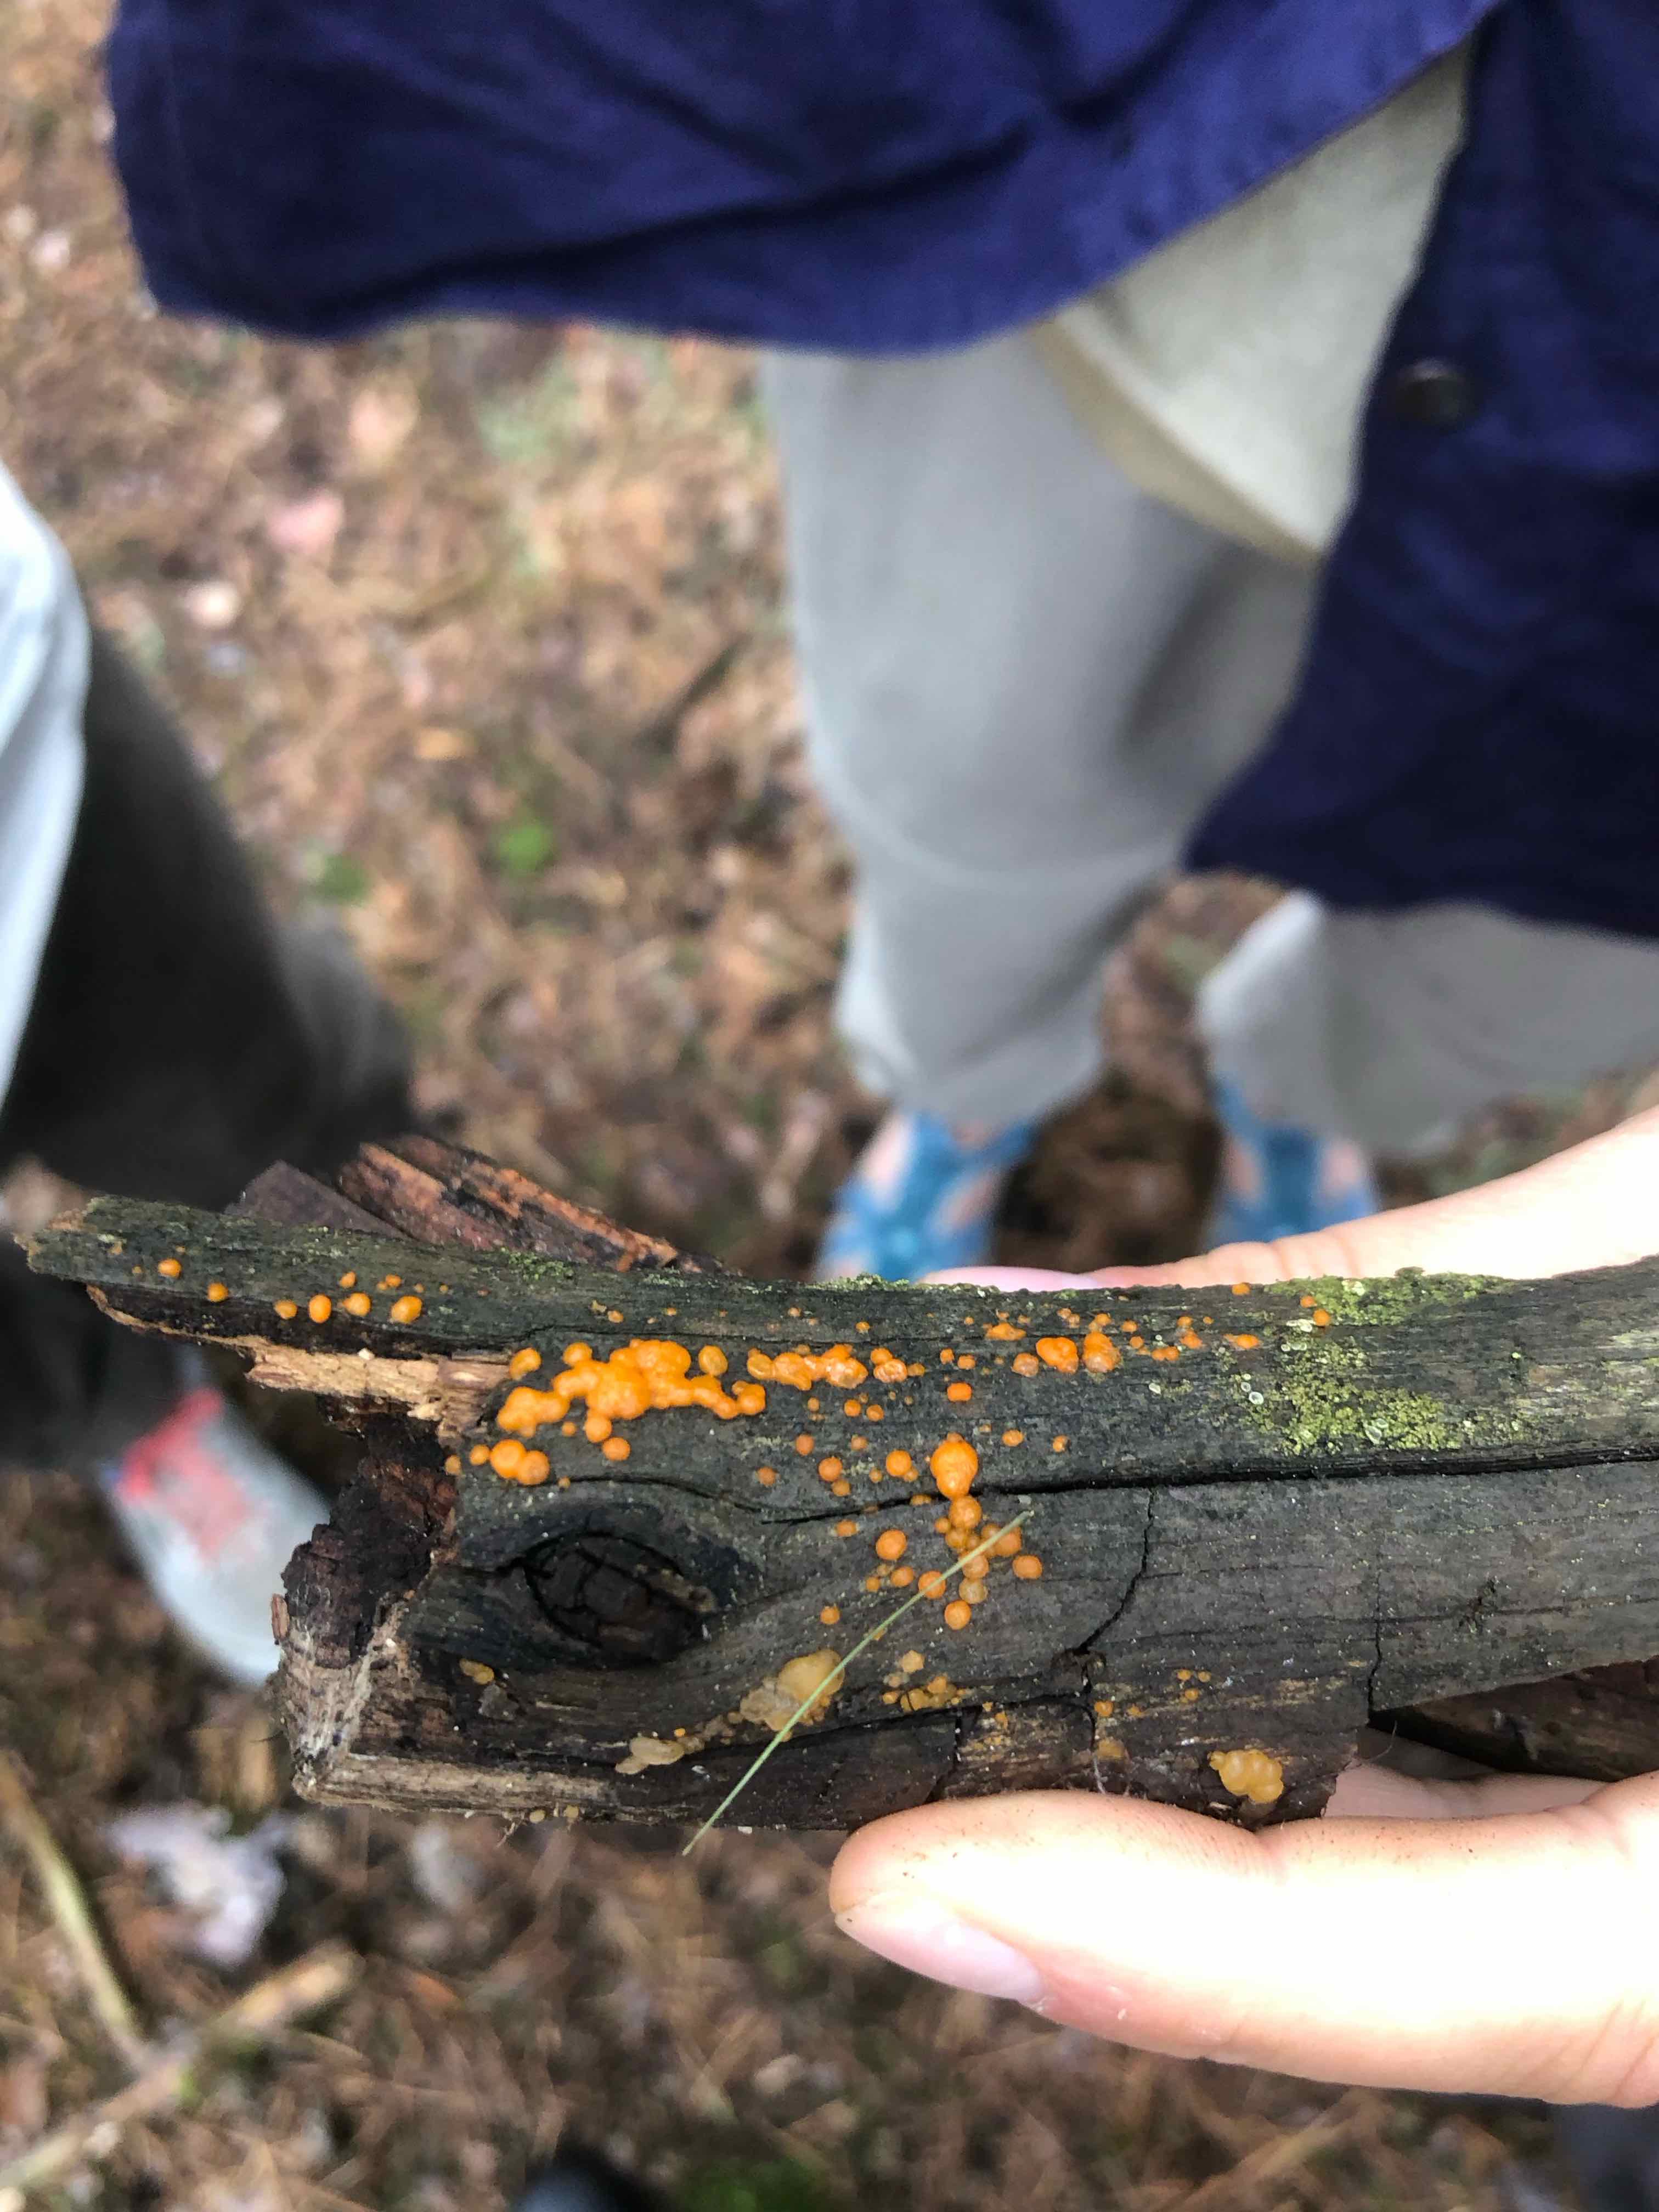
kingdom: Fungi
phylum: Basidiomycota
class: Dacrymycetes
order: Dacrymycetales
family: Dacrymycetaceae
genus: Dacrymyces
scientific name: Dacrymyces stillatus
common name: almindelig tåresvamp
